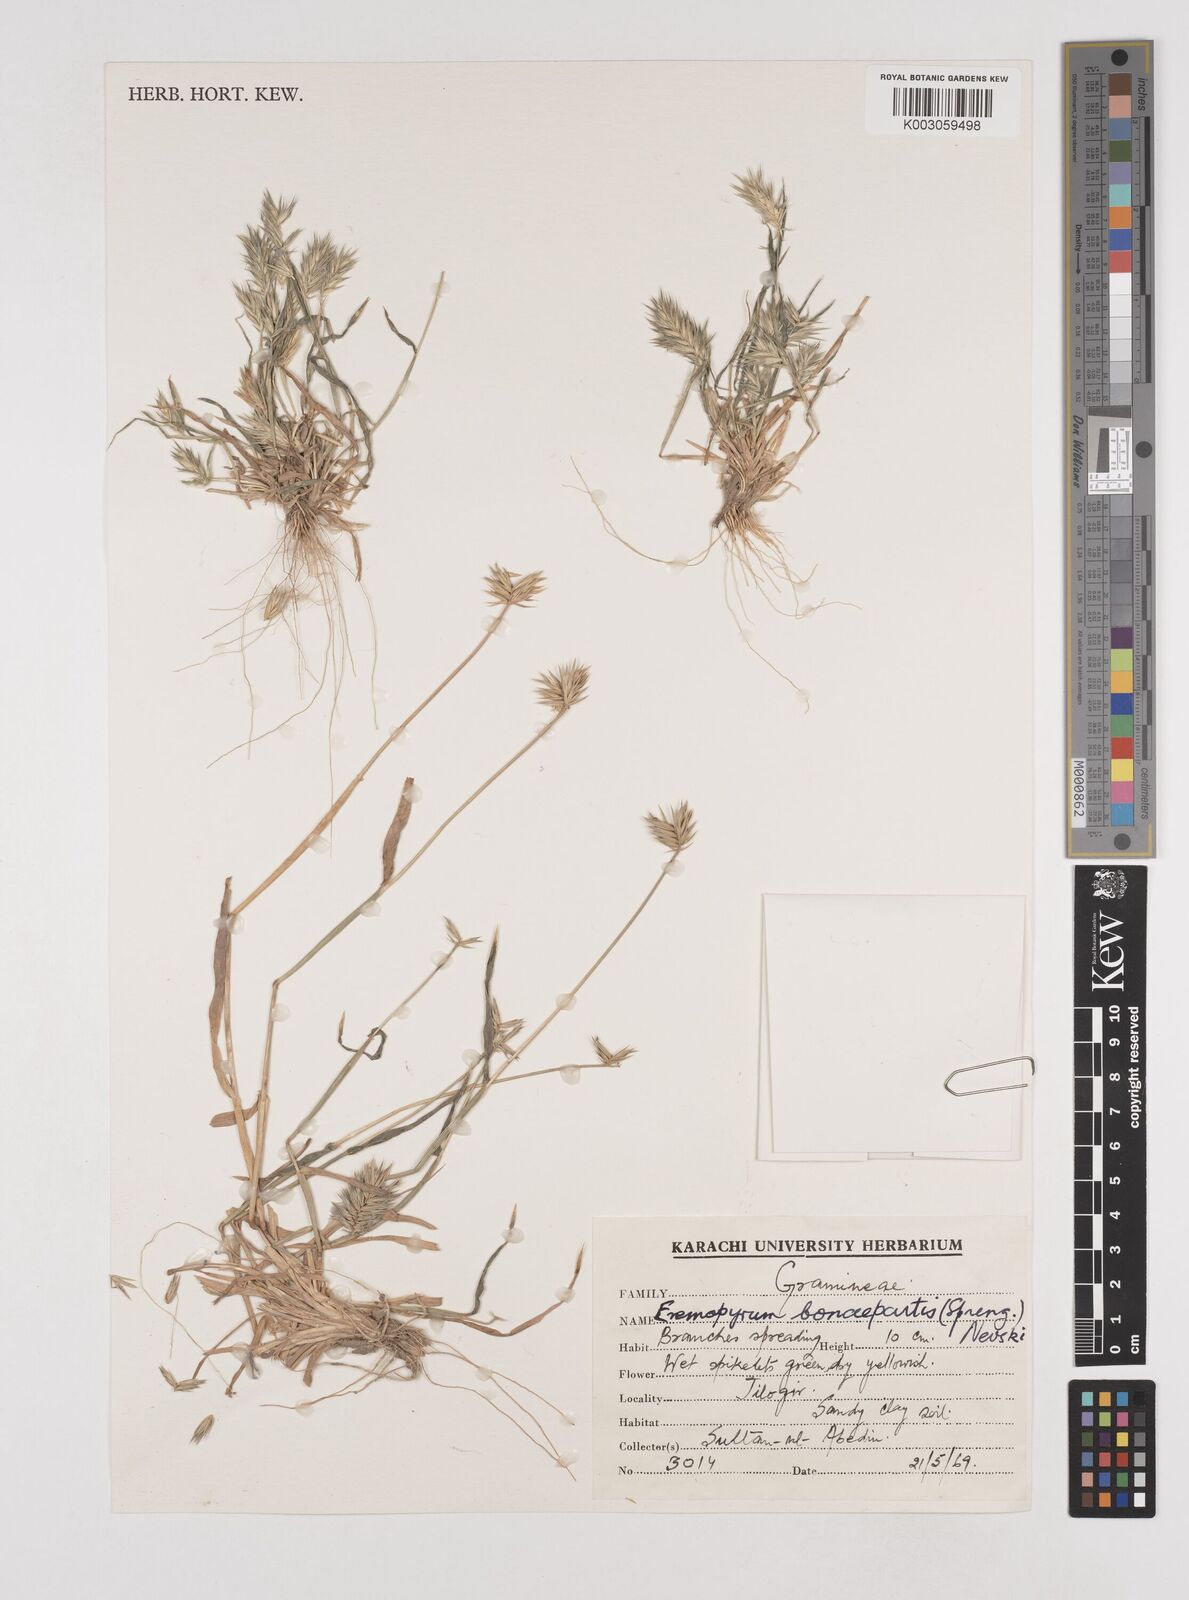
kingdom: Plantae
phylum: Tracheophyta
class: Liliopsida
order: Poales
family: Poaceae
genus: Eremopyrum
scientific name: Eremopyrum bonaepartis
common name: Tapertip false wheatgrass
